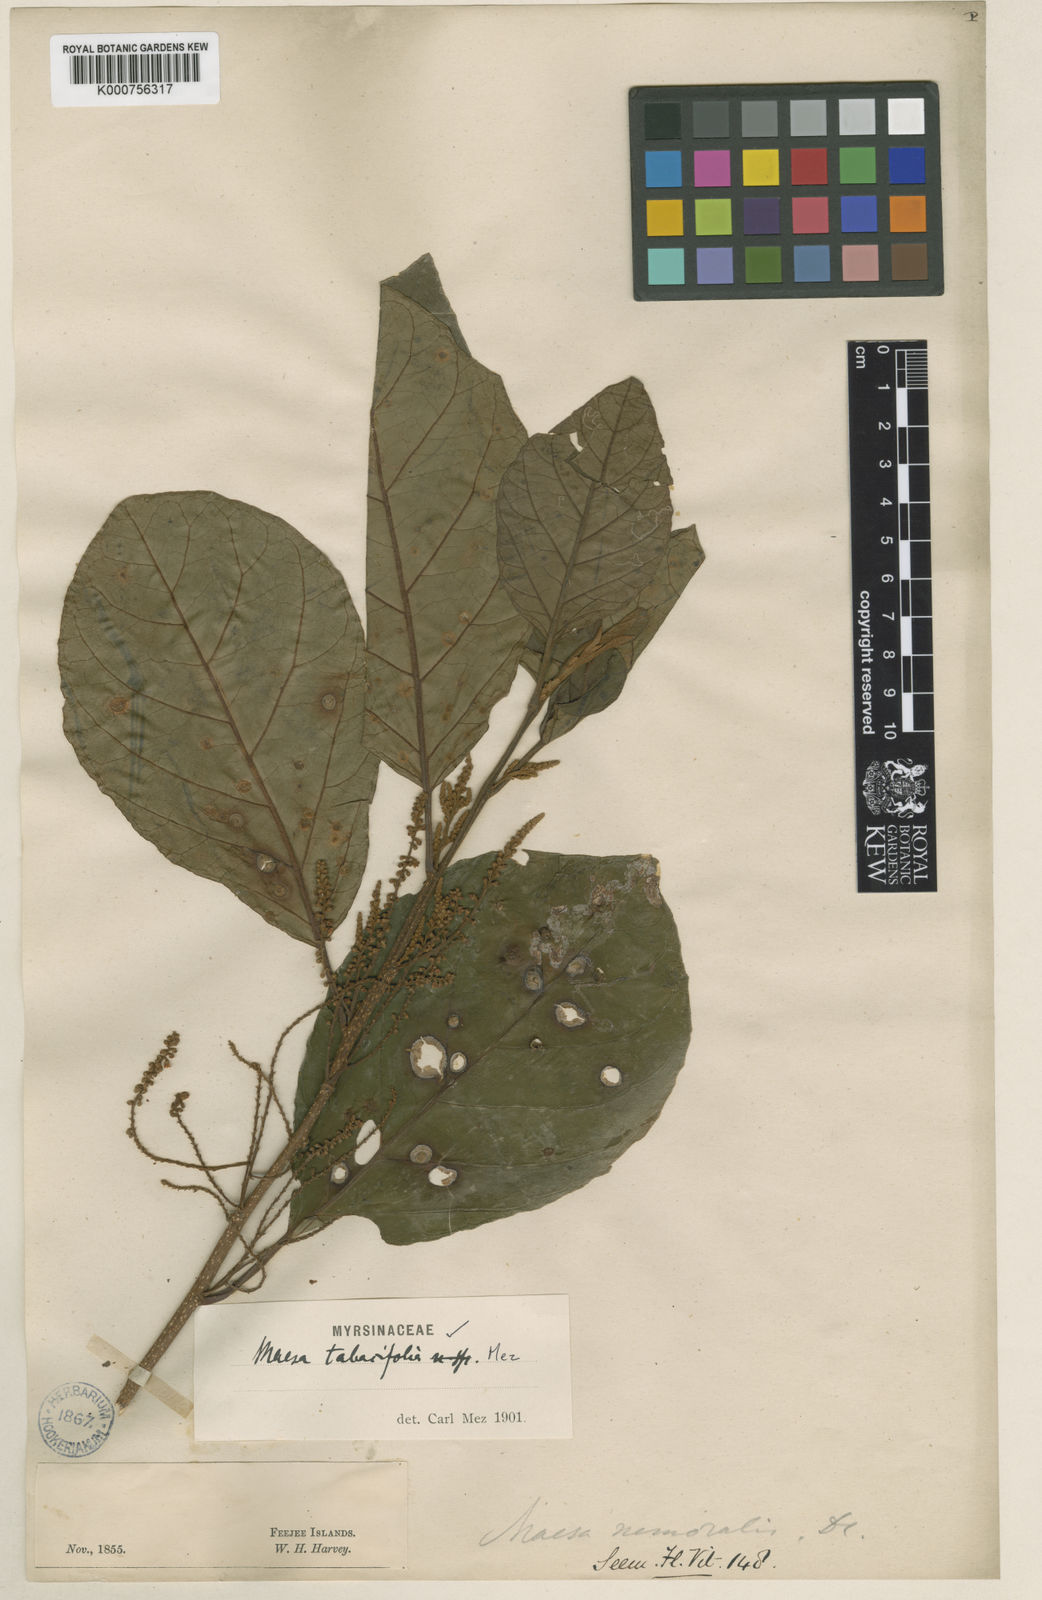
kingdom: Plantae
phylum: Tracheophyta
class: Magnoliopsida
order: Ericales
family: Primulaceae
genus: Maesa
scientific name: Maesa tabacifolia
